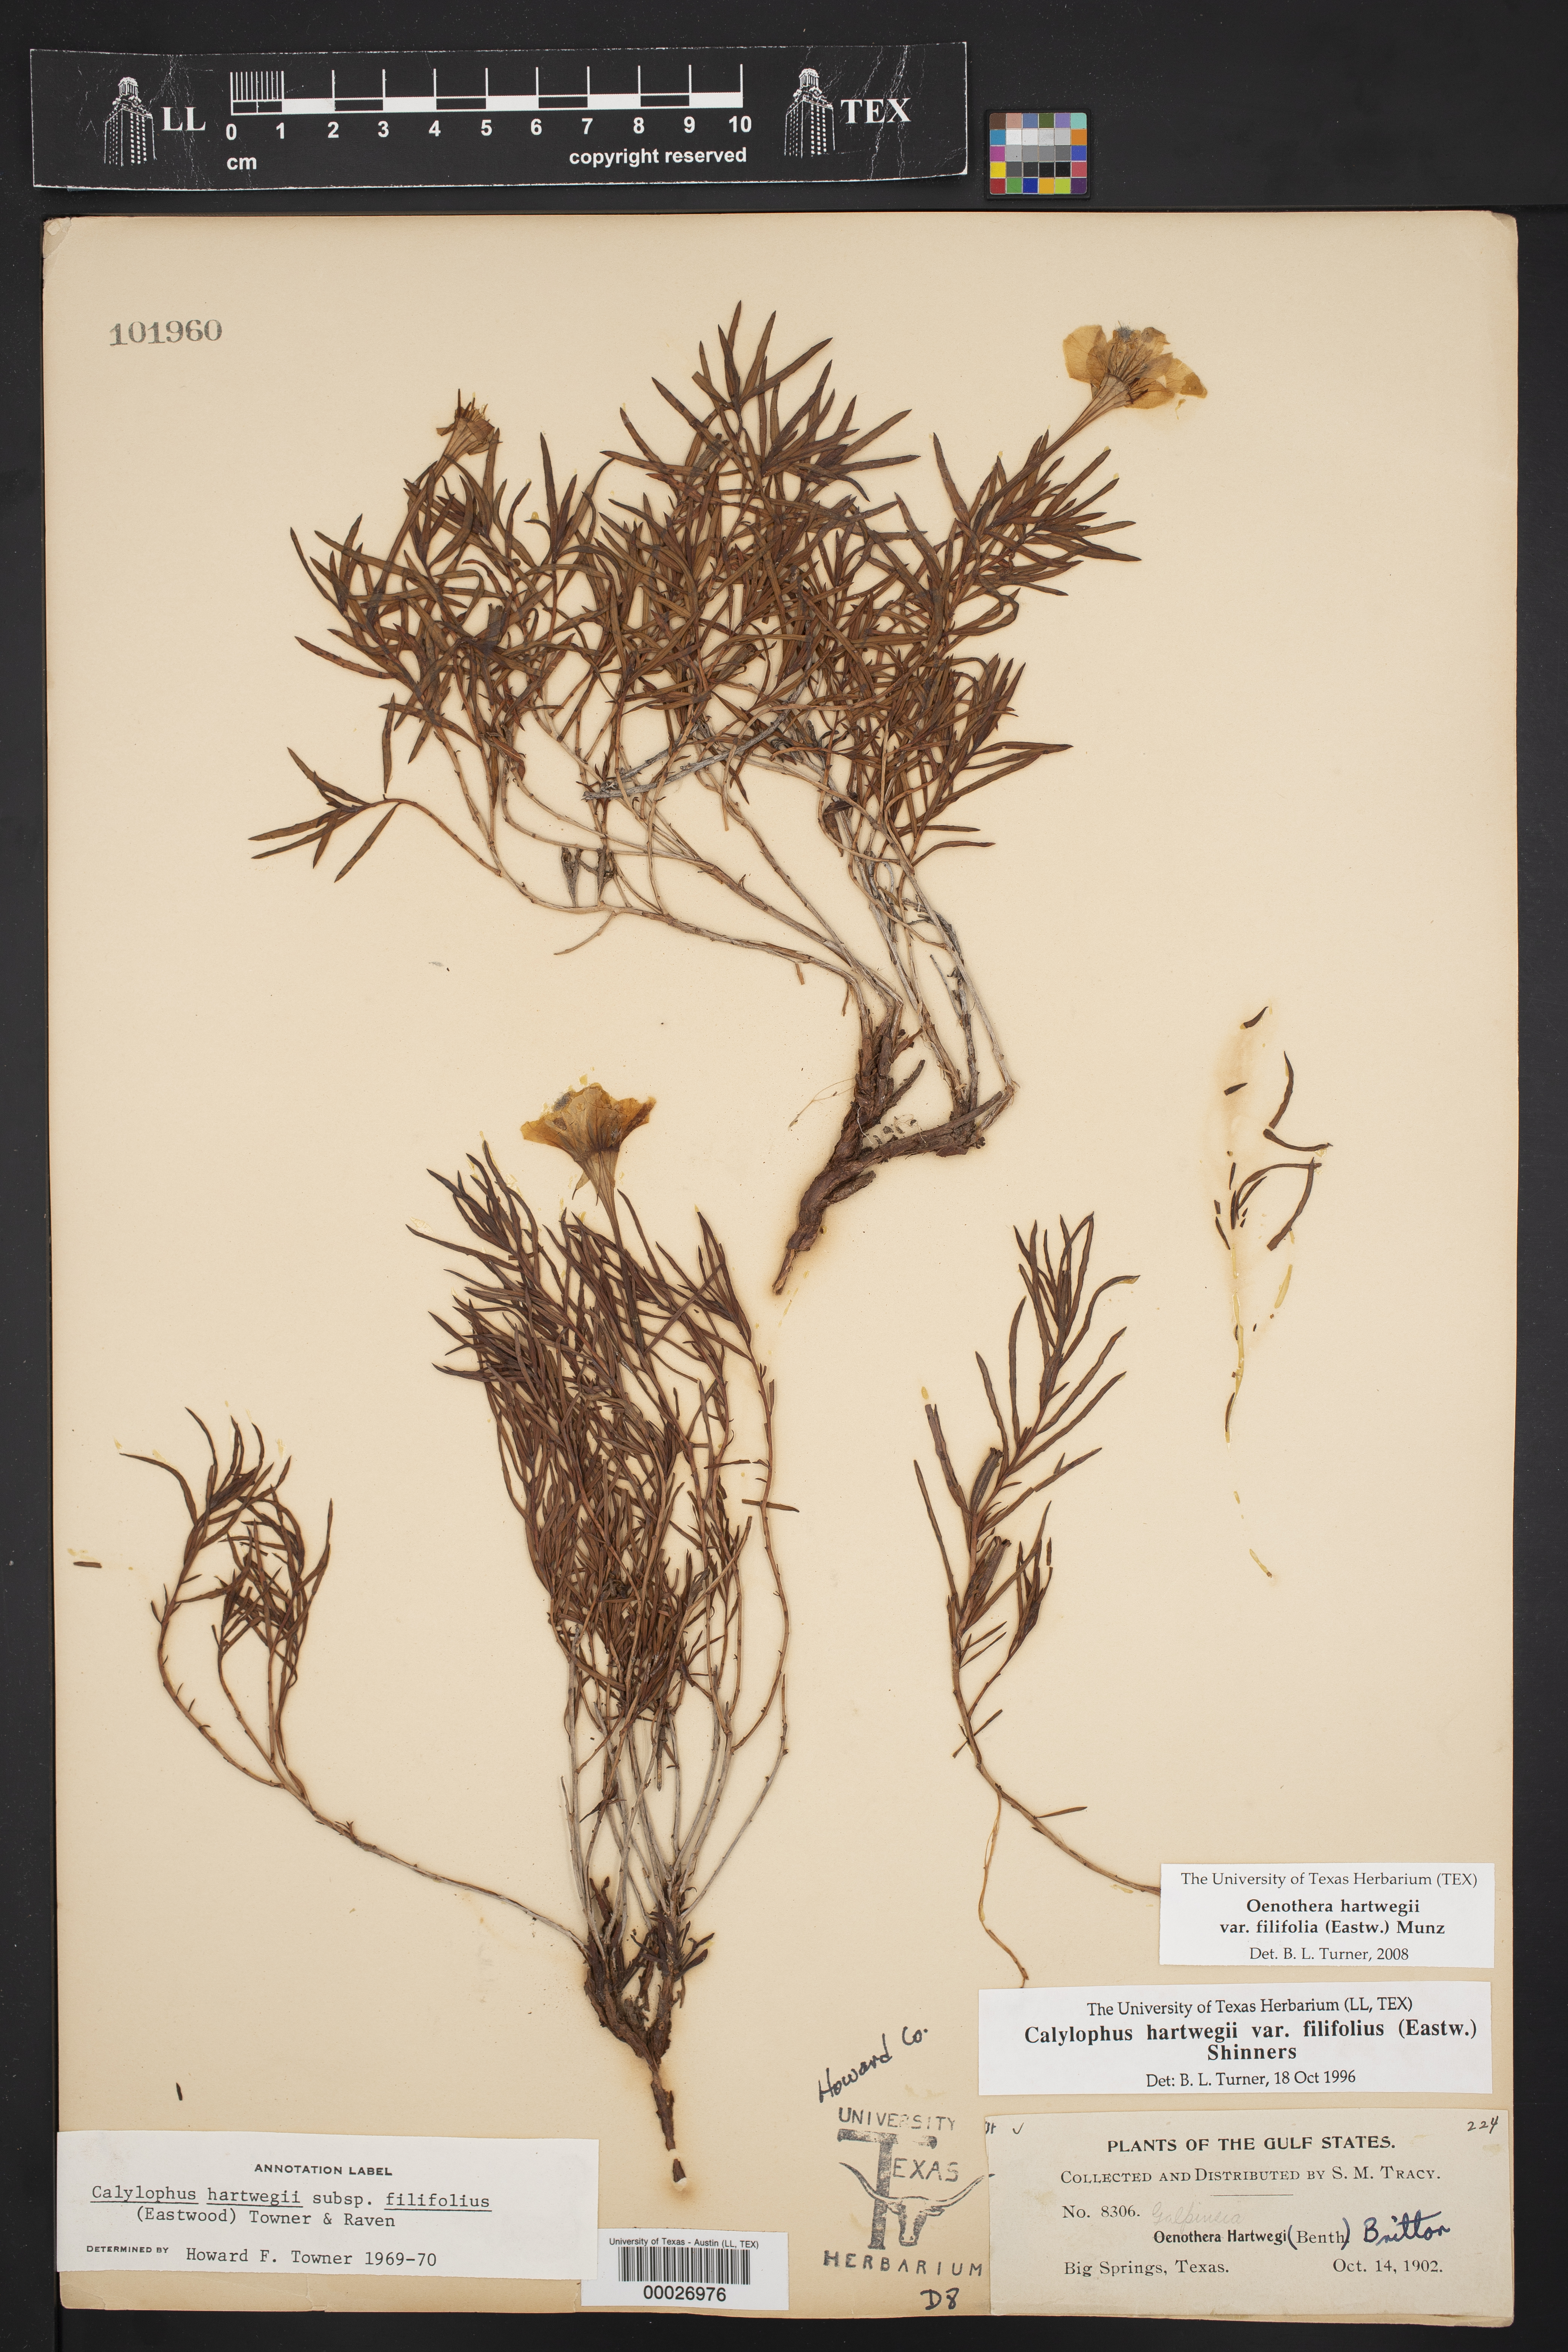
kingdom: Plantae
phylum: Tracheophyta
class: Magnoliopsida
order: Myrtales
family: Onagraceae
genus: Oenothera
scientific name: Oenothera hartwegii
